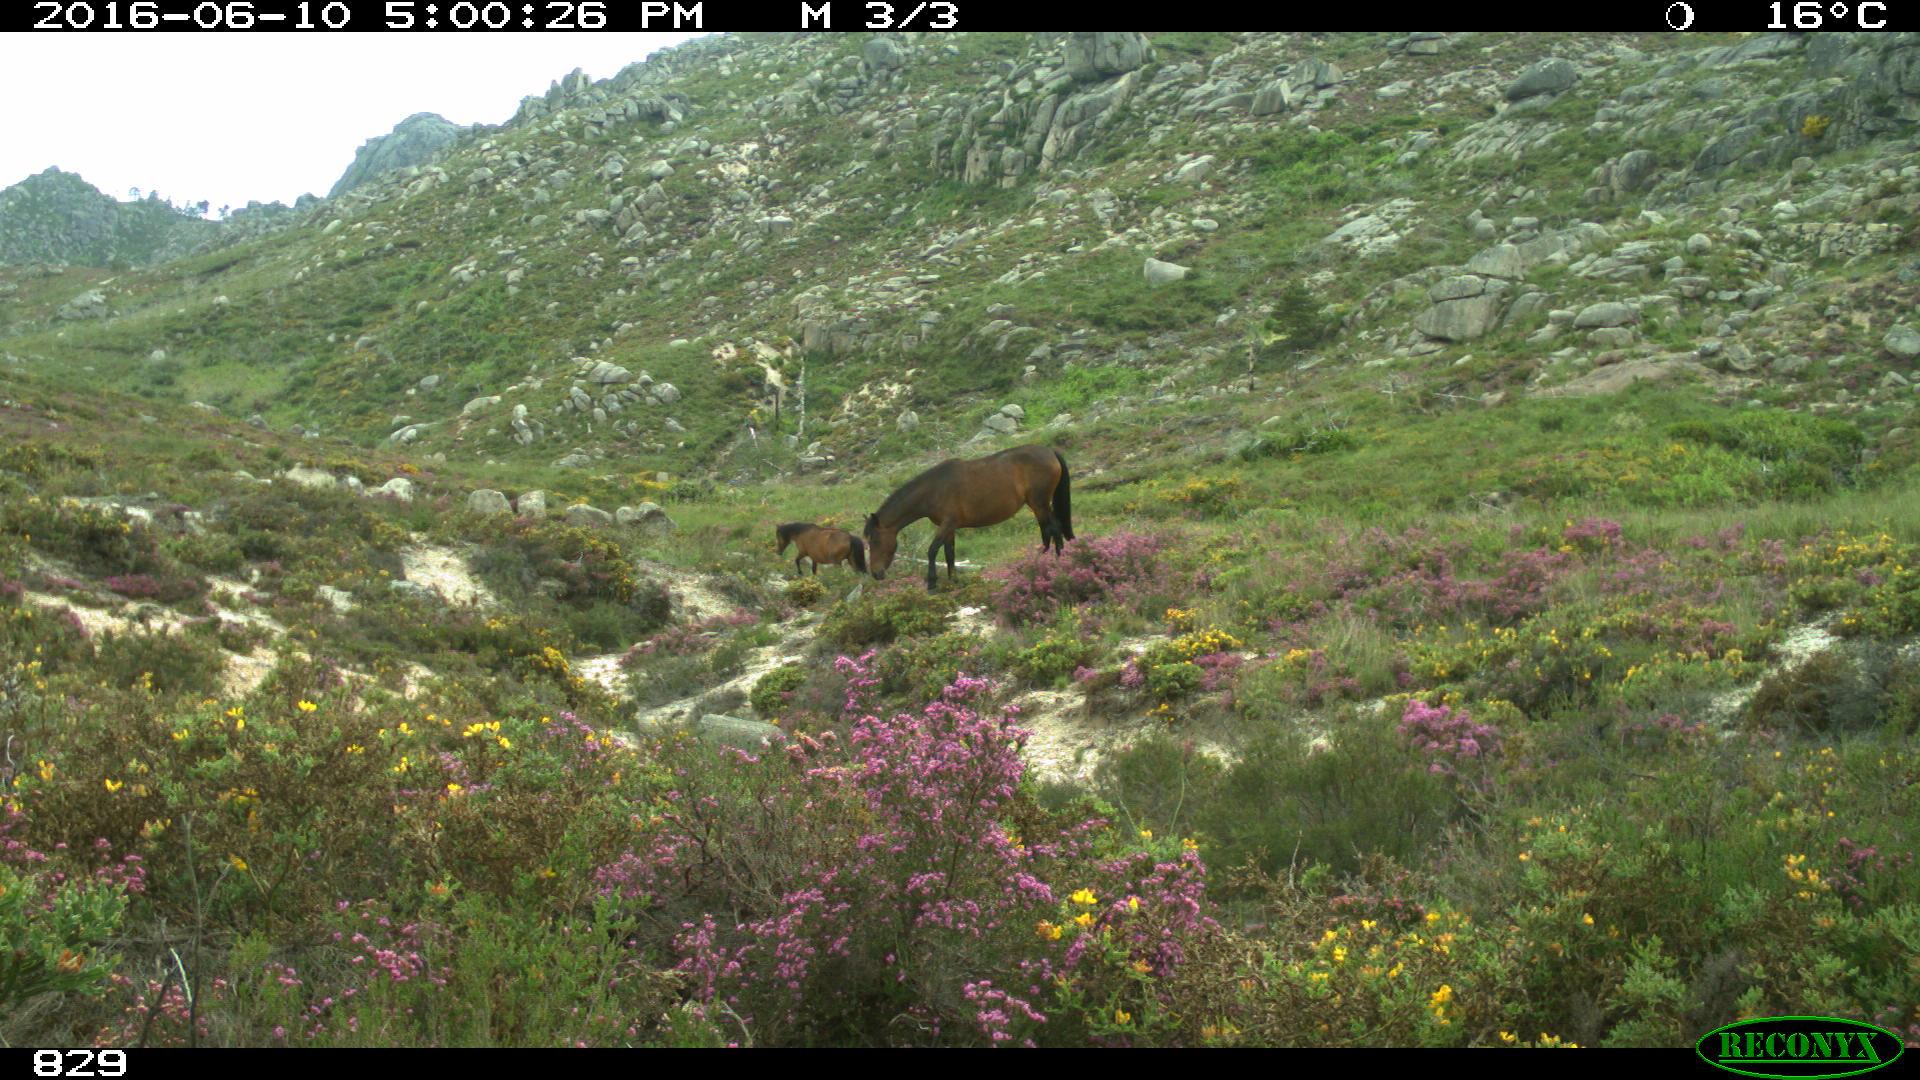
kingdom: Animalia
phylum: Chordata
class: Mammalia
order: Perissodactyla
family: Equidae
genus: Equus
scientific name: Equus caballus
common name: Horse
